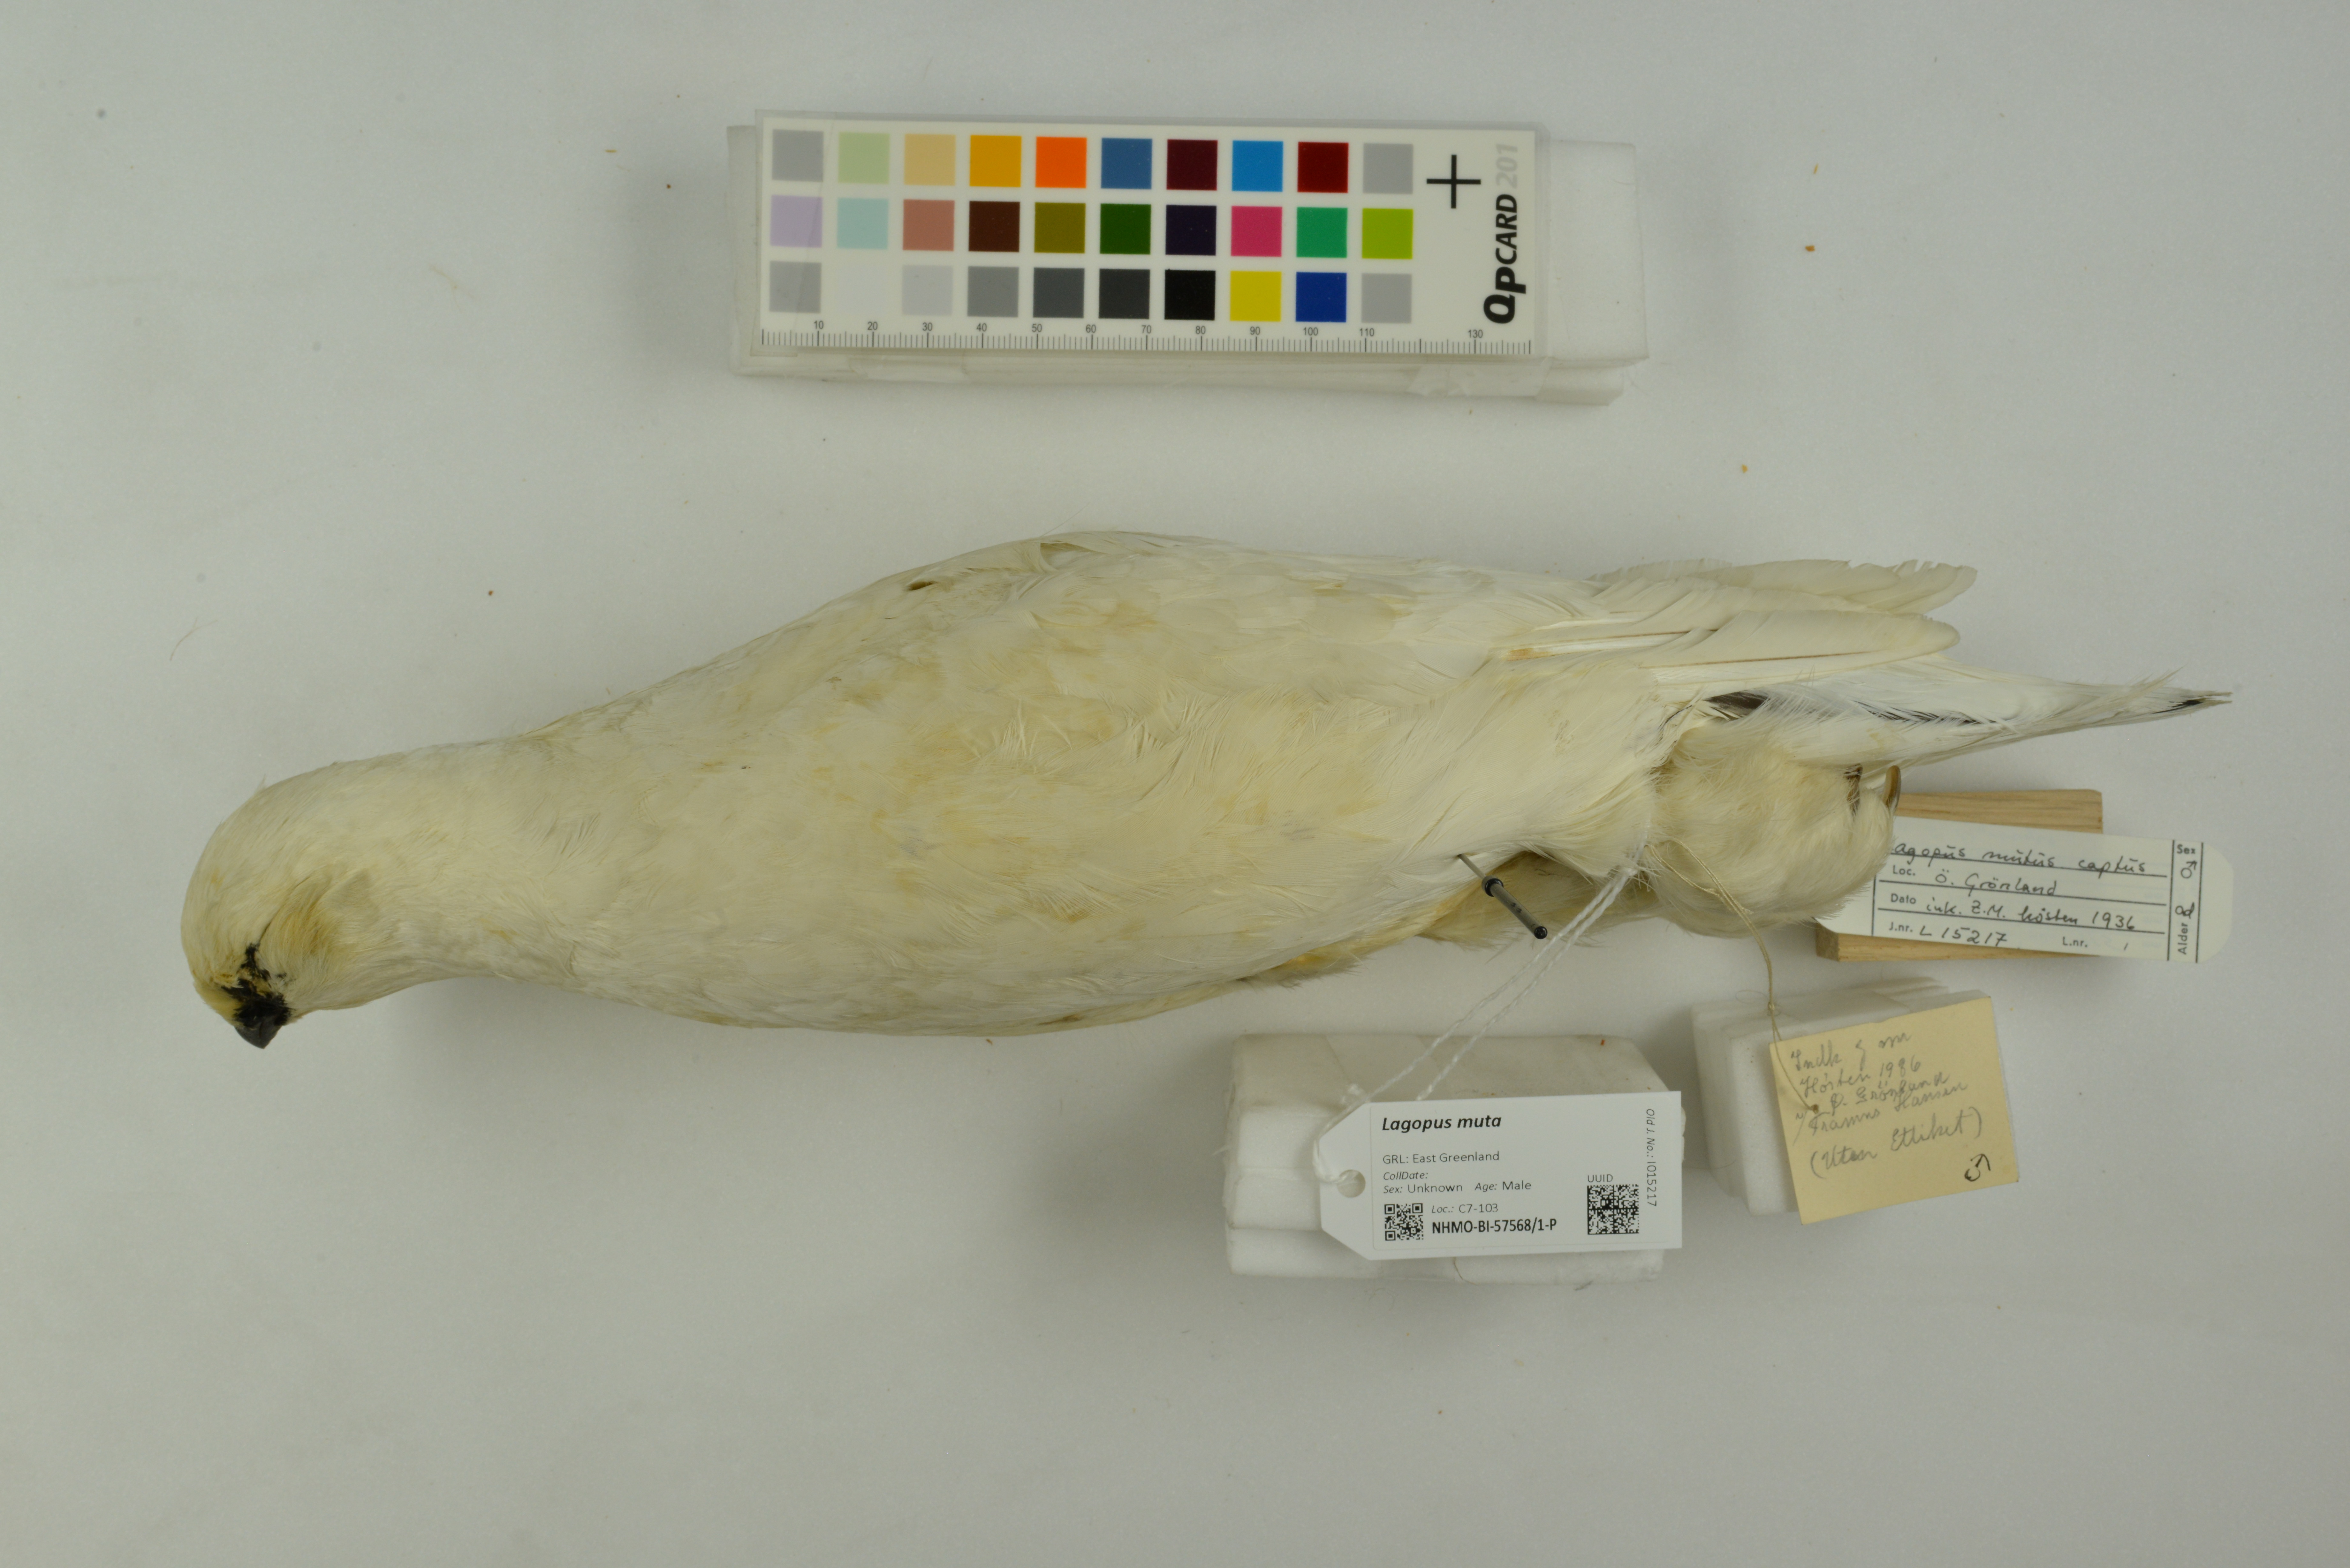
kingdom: Animalia
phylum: Chordata
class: Aves
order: Galliformes
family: Phasianidae
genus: Lagopus
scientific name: Lagopus muta
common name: Rock ptarmigan
